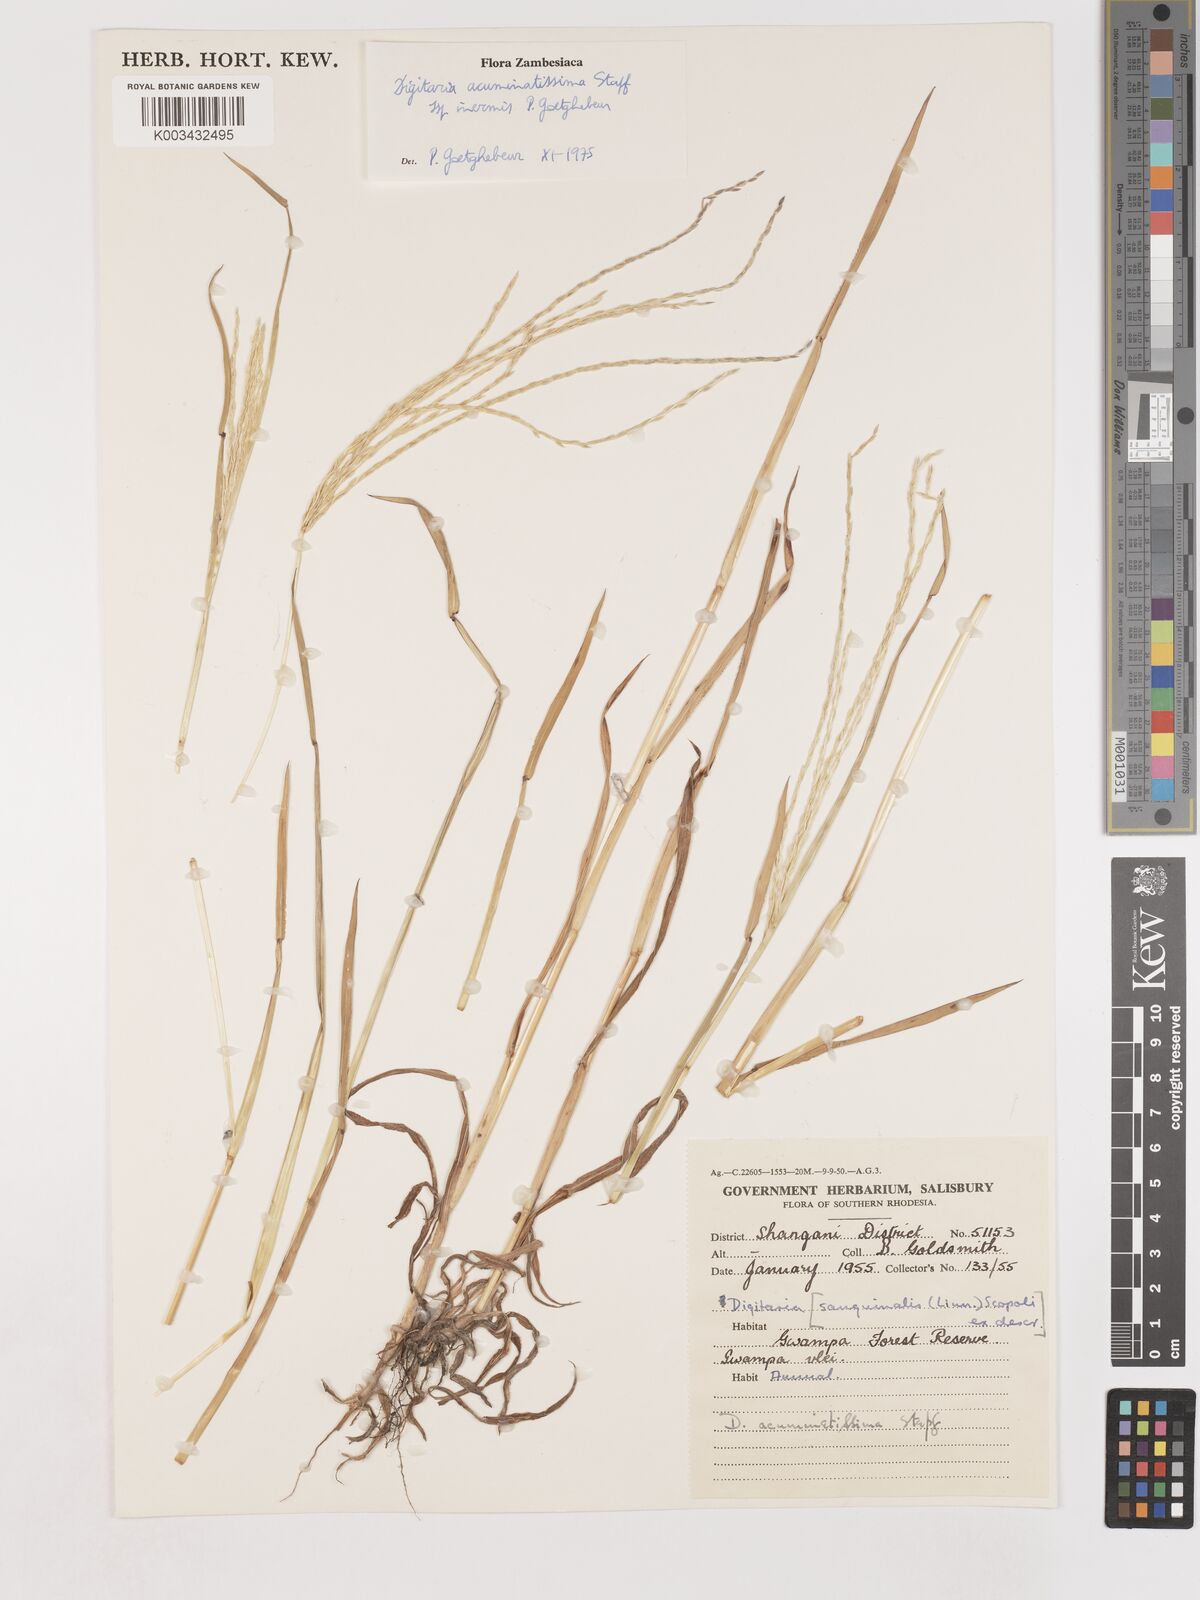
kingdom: Plantae
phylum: Tracheophyta
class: Liliopsida
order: Poales
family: Poaceae
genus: Digitaria
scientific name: Digitaria acuminatissima
